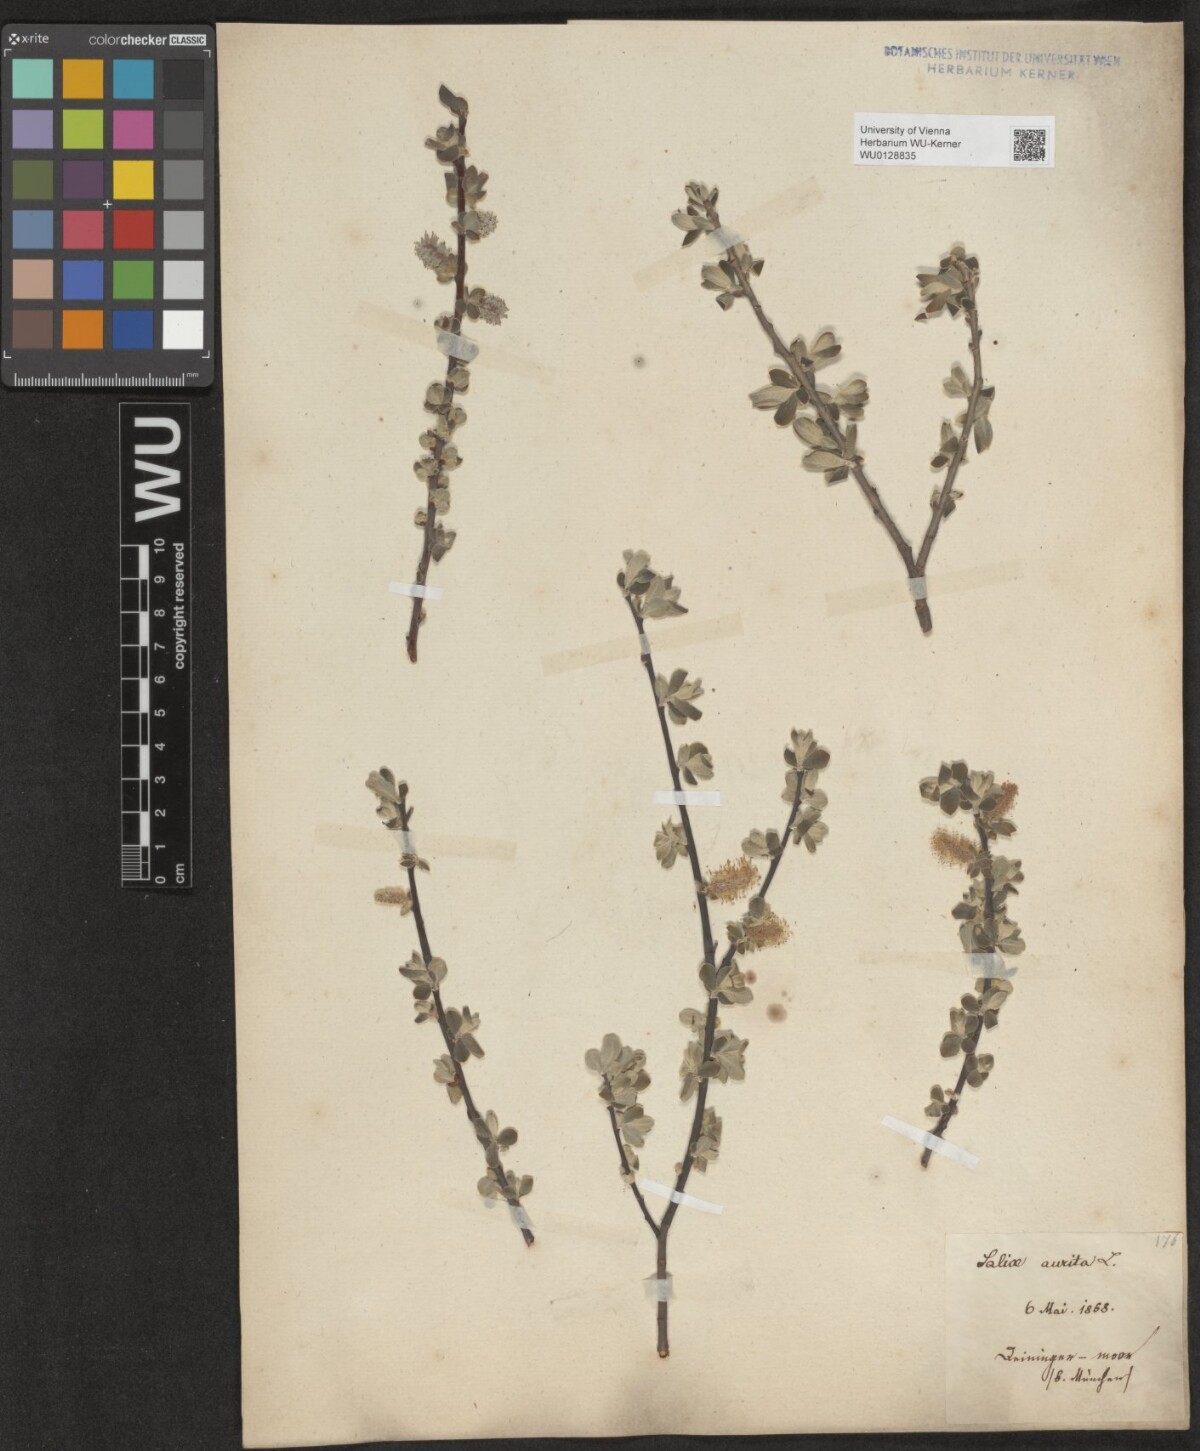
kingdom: Plantae
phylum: Tracheophyta
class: Magnoliopsida
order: Malpighiales
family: Salicaceae
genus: Salix
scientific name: Salix aurita
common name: Eared willow
